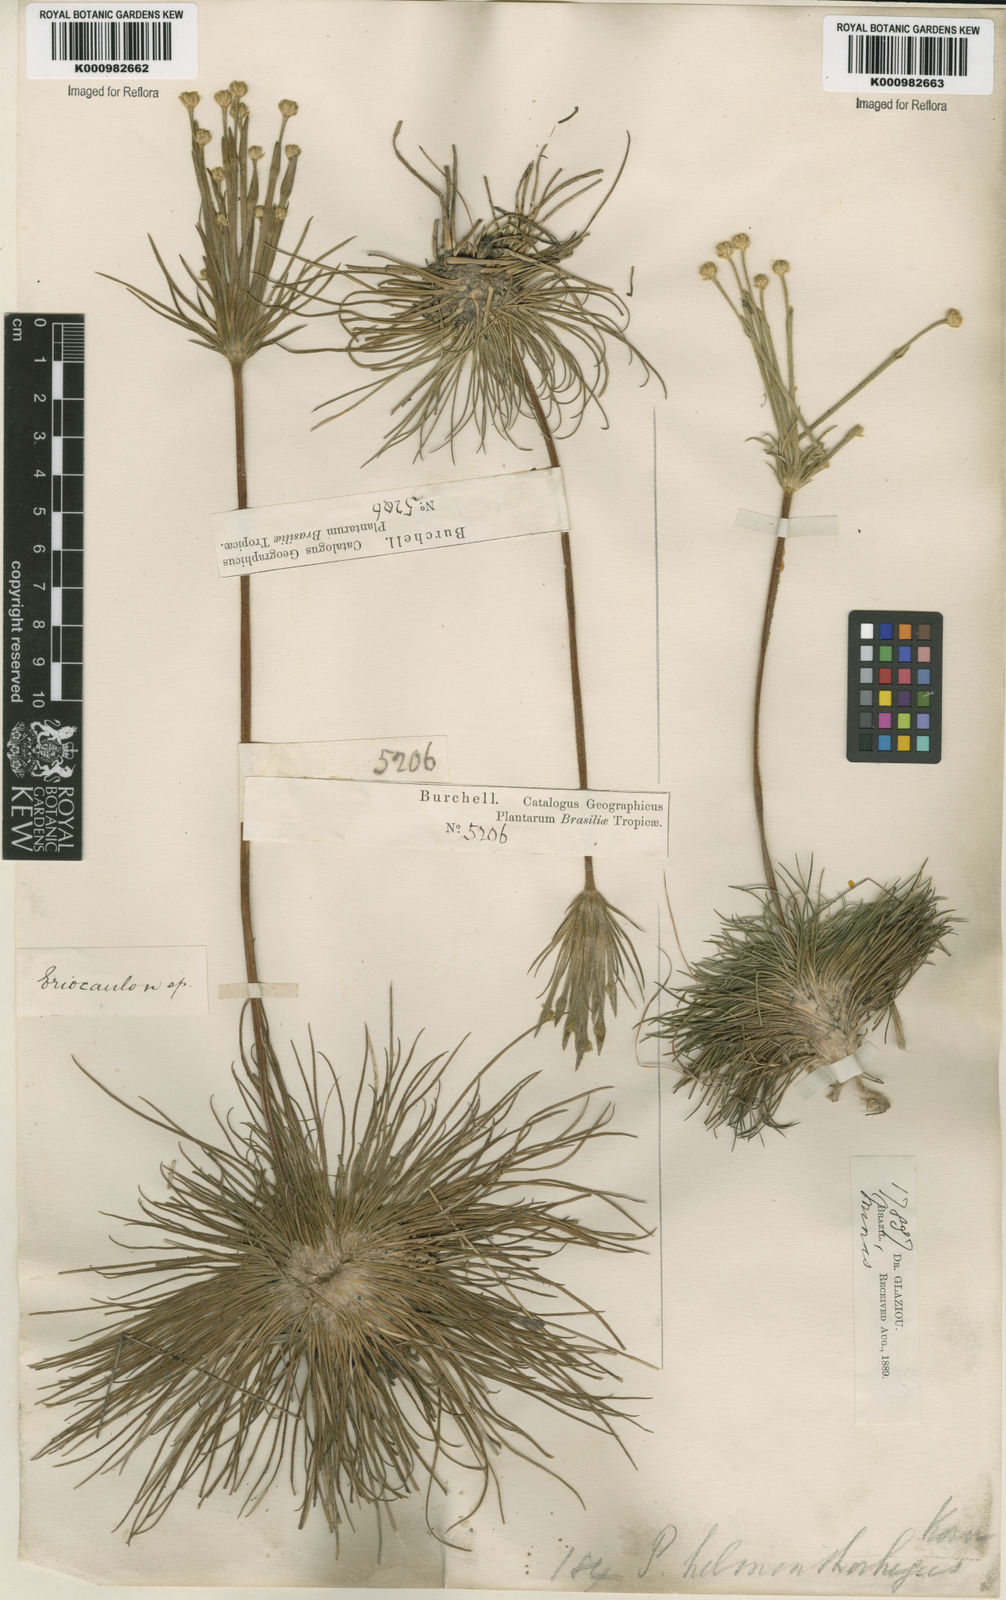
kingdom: Plantae
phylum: Tracheophyta
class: Liliopsida
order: Poales
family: Eriocaulaceae
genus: Syngonanthus
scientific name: Syngonanthus
